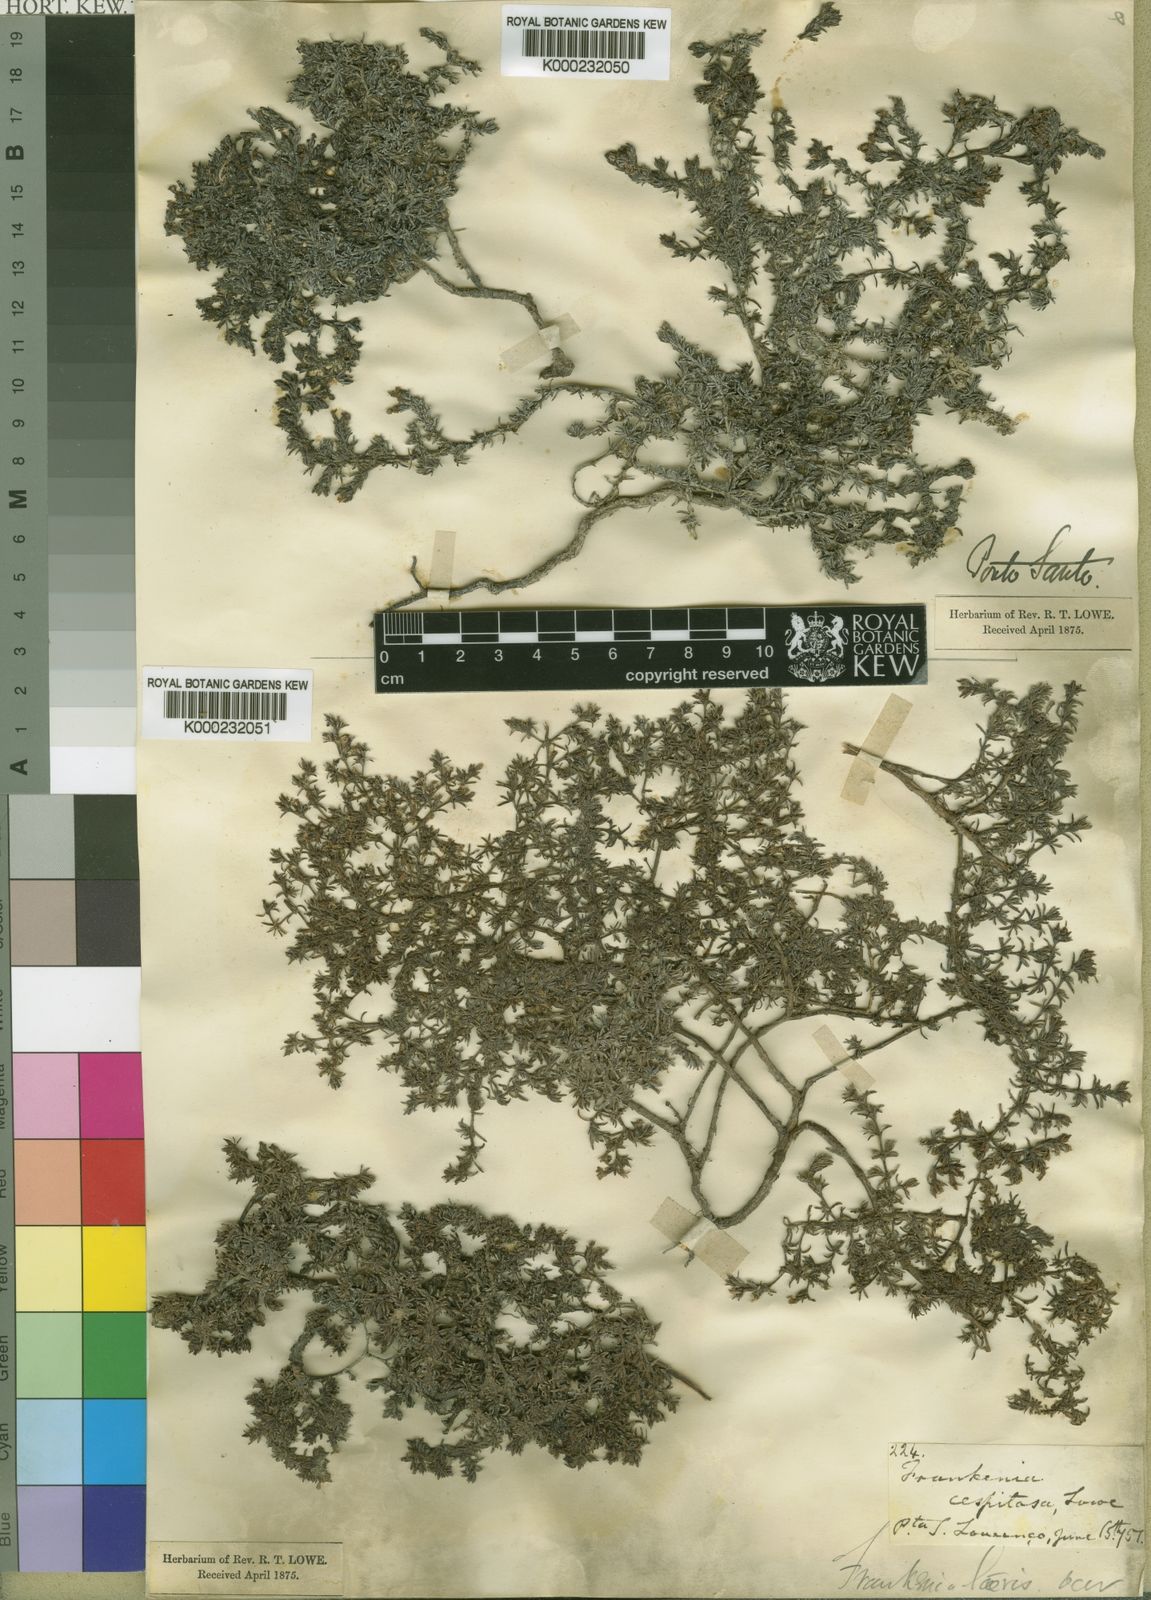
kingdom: Plantae
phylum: Tracheophyta
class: Magnoliopsida
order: Caryophyllales
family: Frankeniaceae
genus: Frankenia
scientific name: Frankenia pulverulenta
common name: European seaheath
